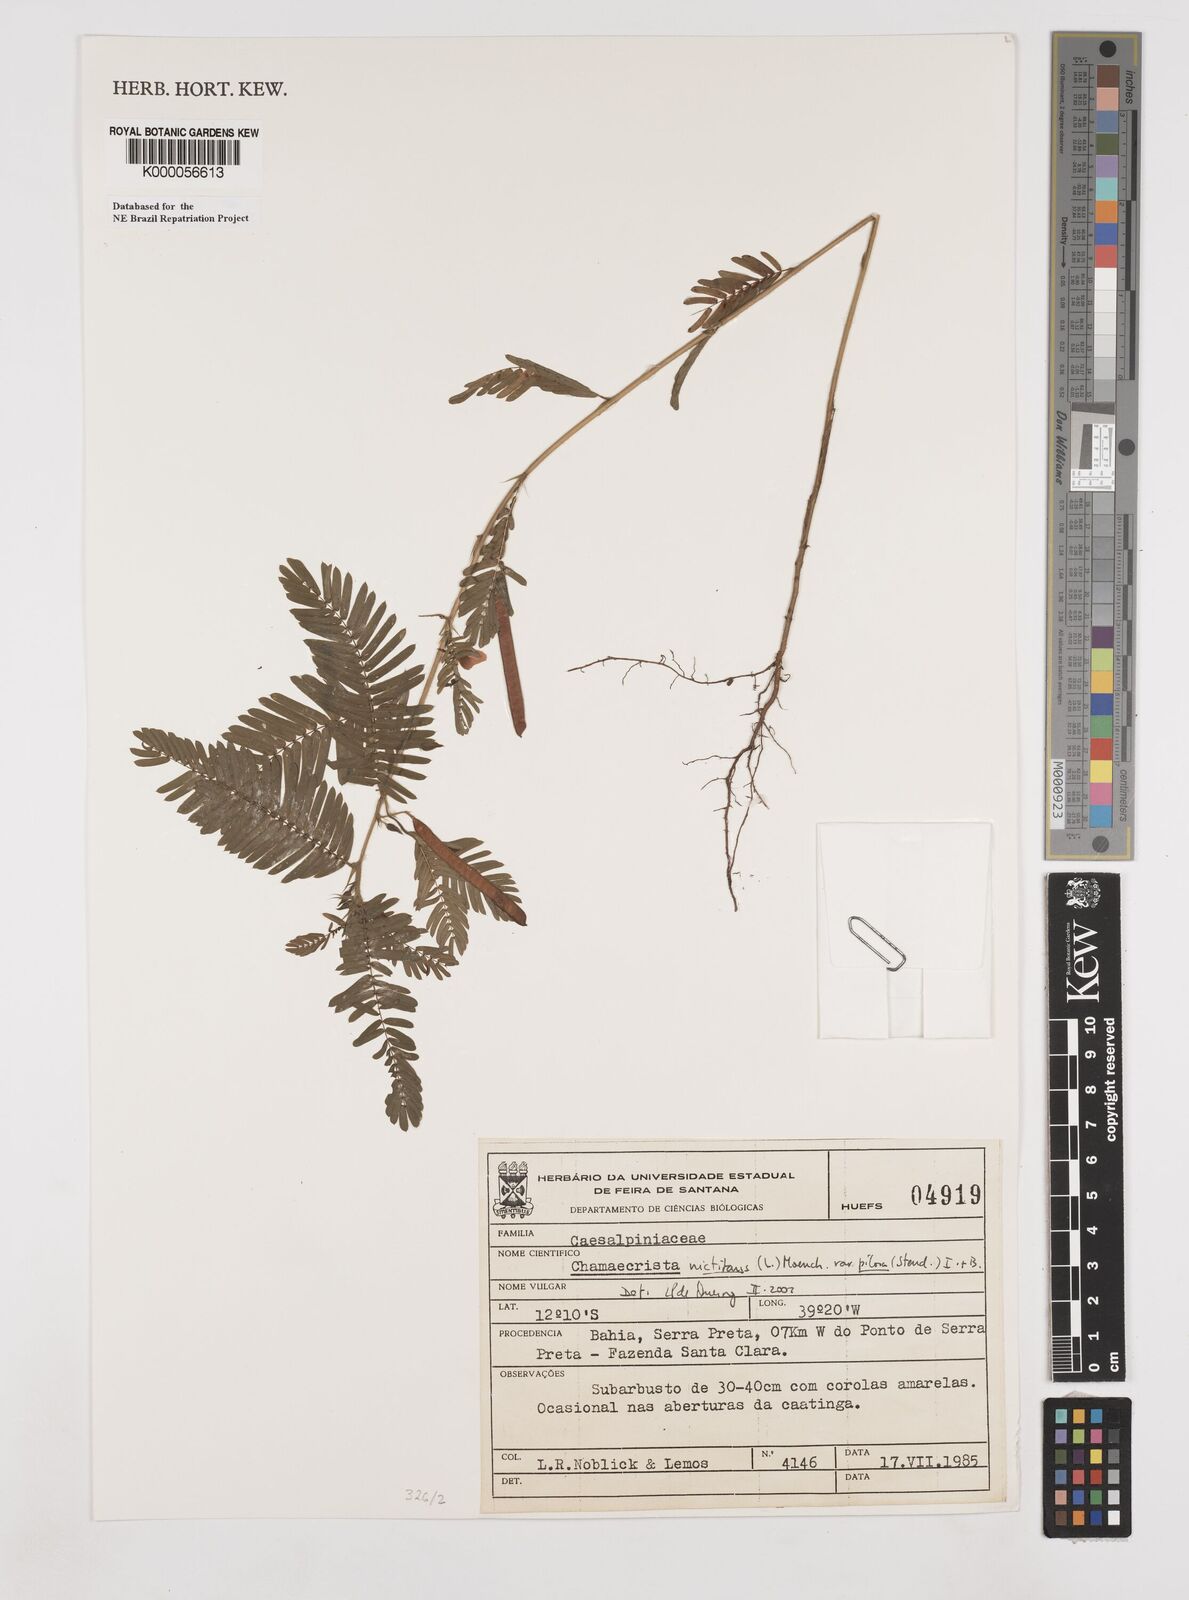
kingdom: Plantae
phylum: Tracheophyta
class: Magnoliopsida
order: Fabales
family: Fabaceae
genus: Chamaecrista
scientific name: Chamaecrista nictitans
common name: Sensitive cassia
